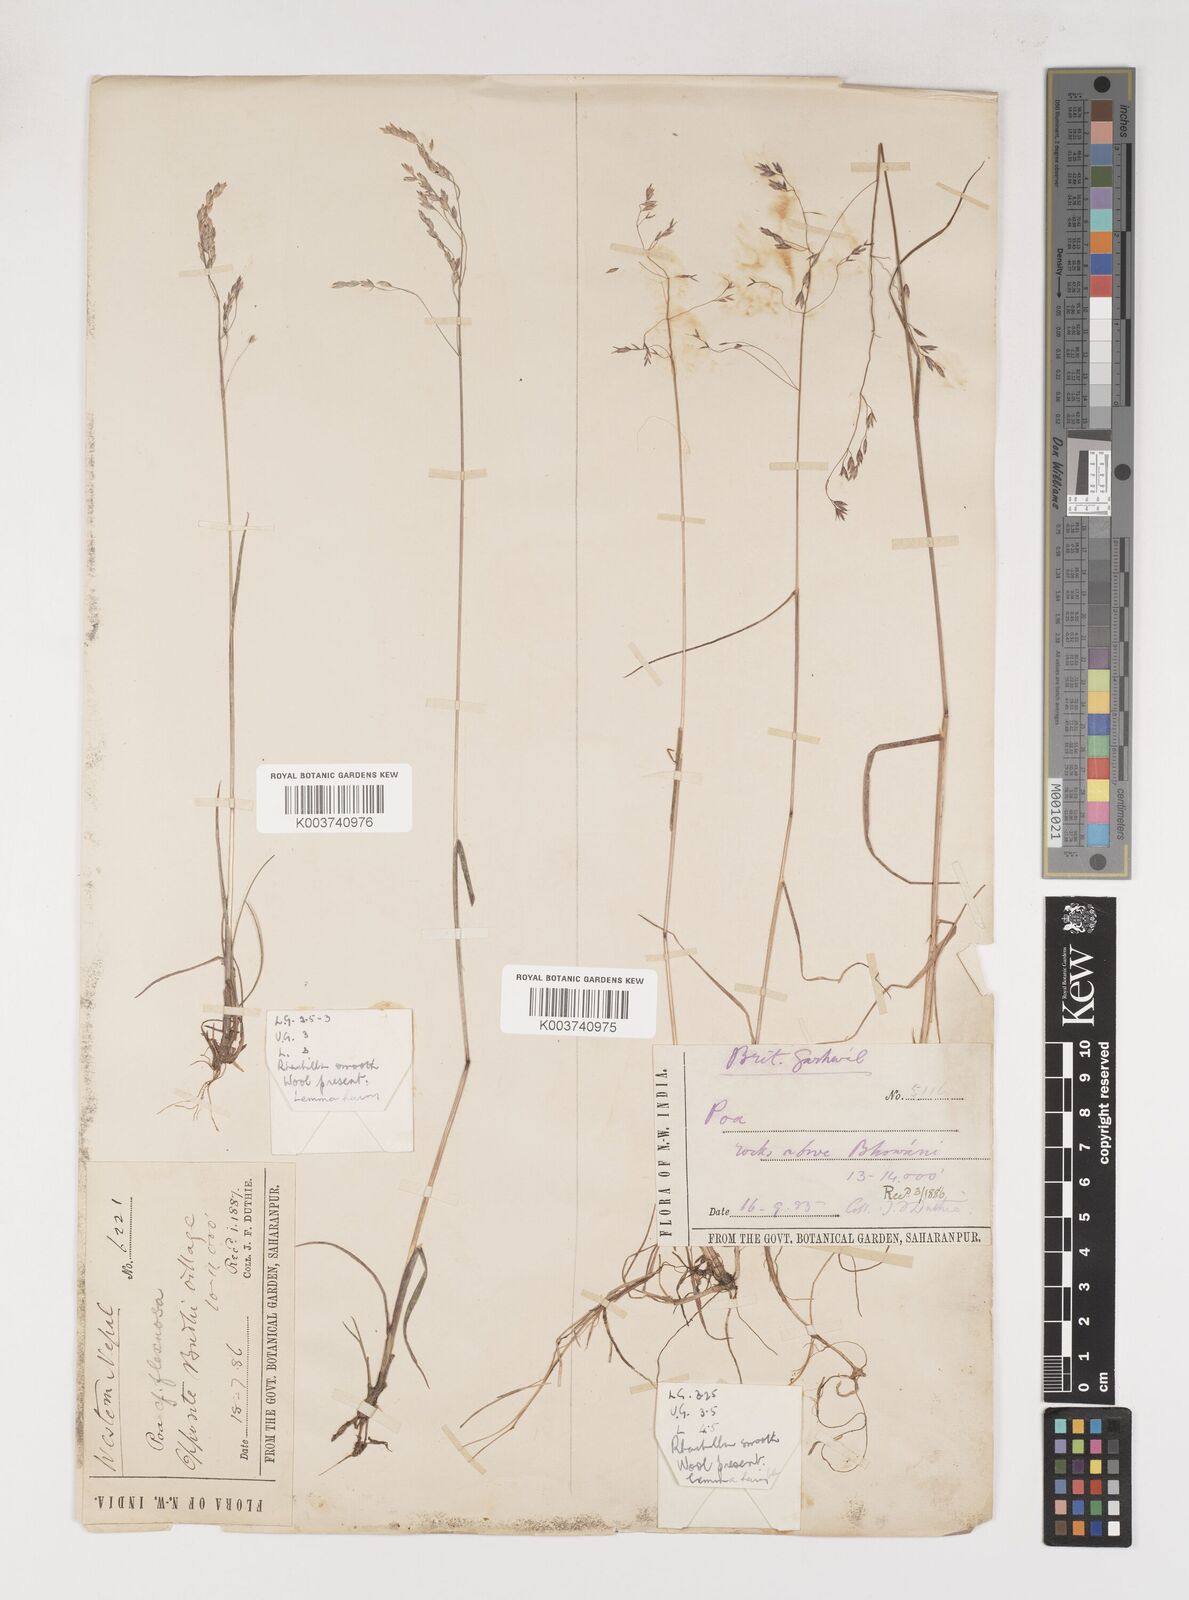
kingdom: Plantae
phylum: Tracheophyta
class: Liliopsida
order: Poales
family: Poaceae
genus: Poa
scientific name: Poa pagophila
